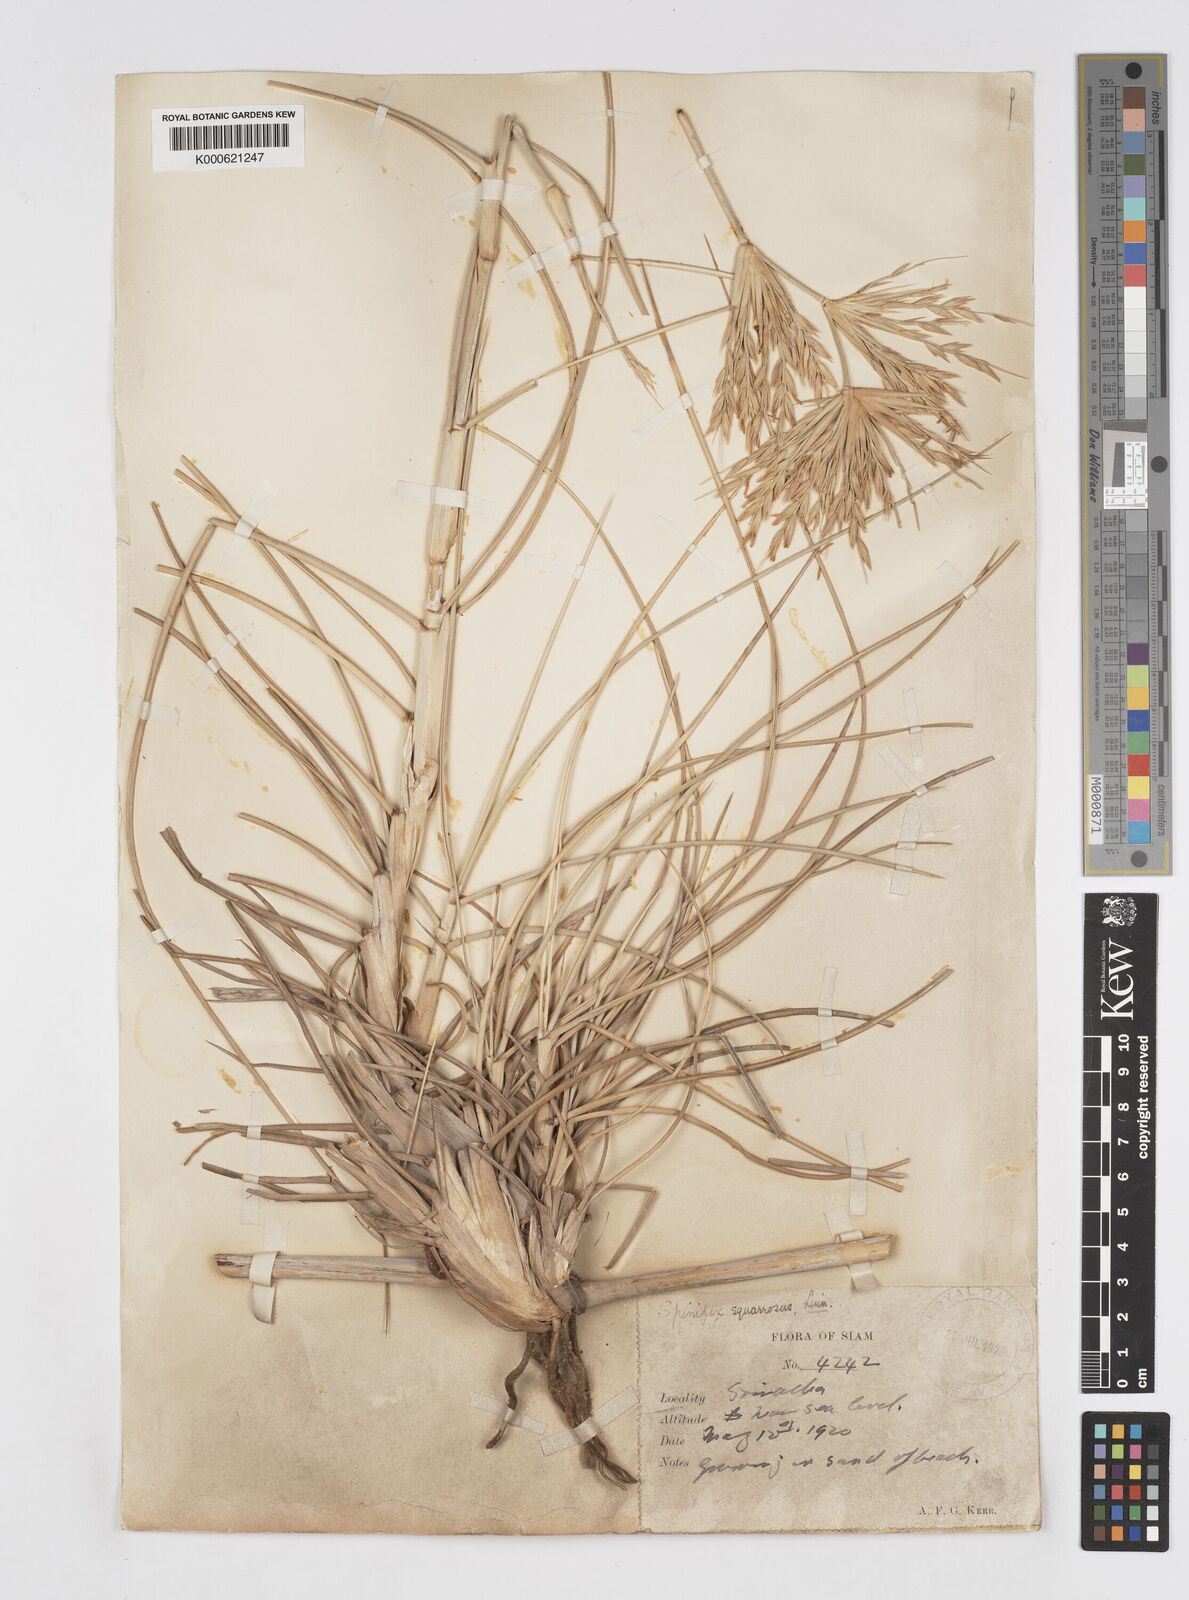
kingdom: Plantae
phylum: Tracheophyta
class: Liliopsida
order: Poales
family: Poaceae
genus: Spinifex
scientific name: Spinifex littoreus
